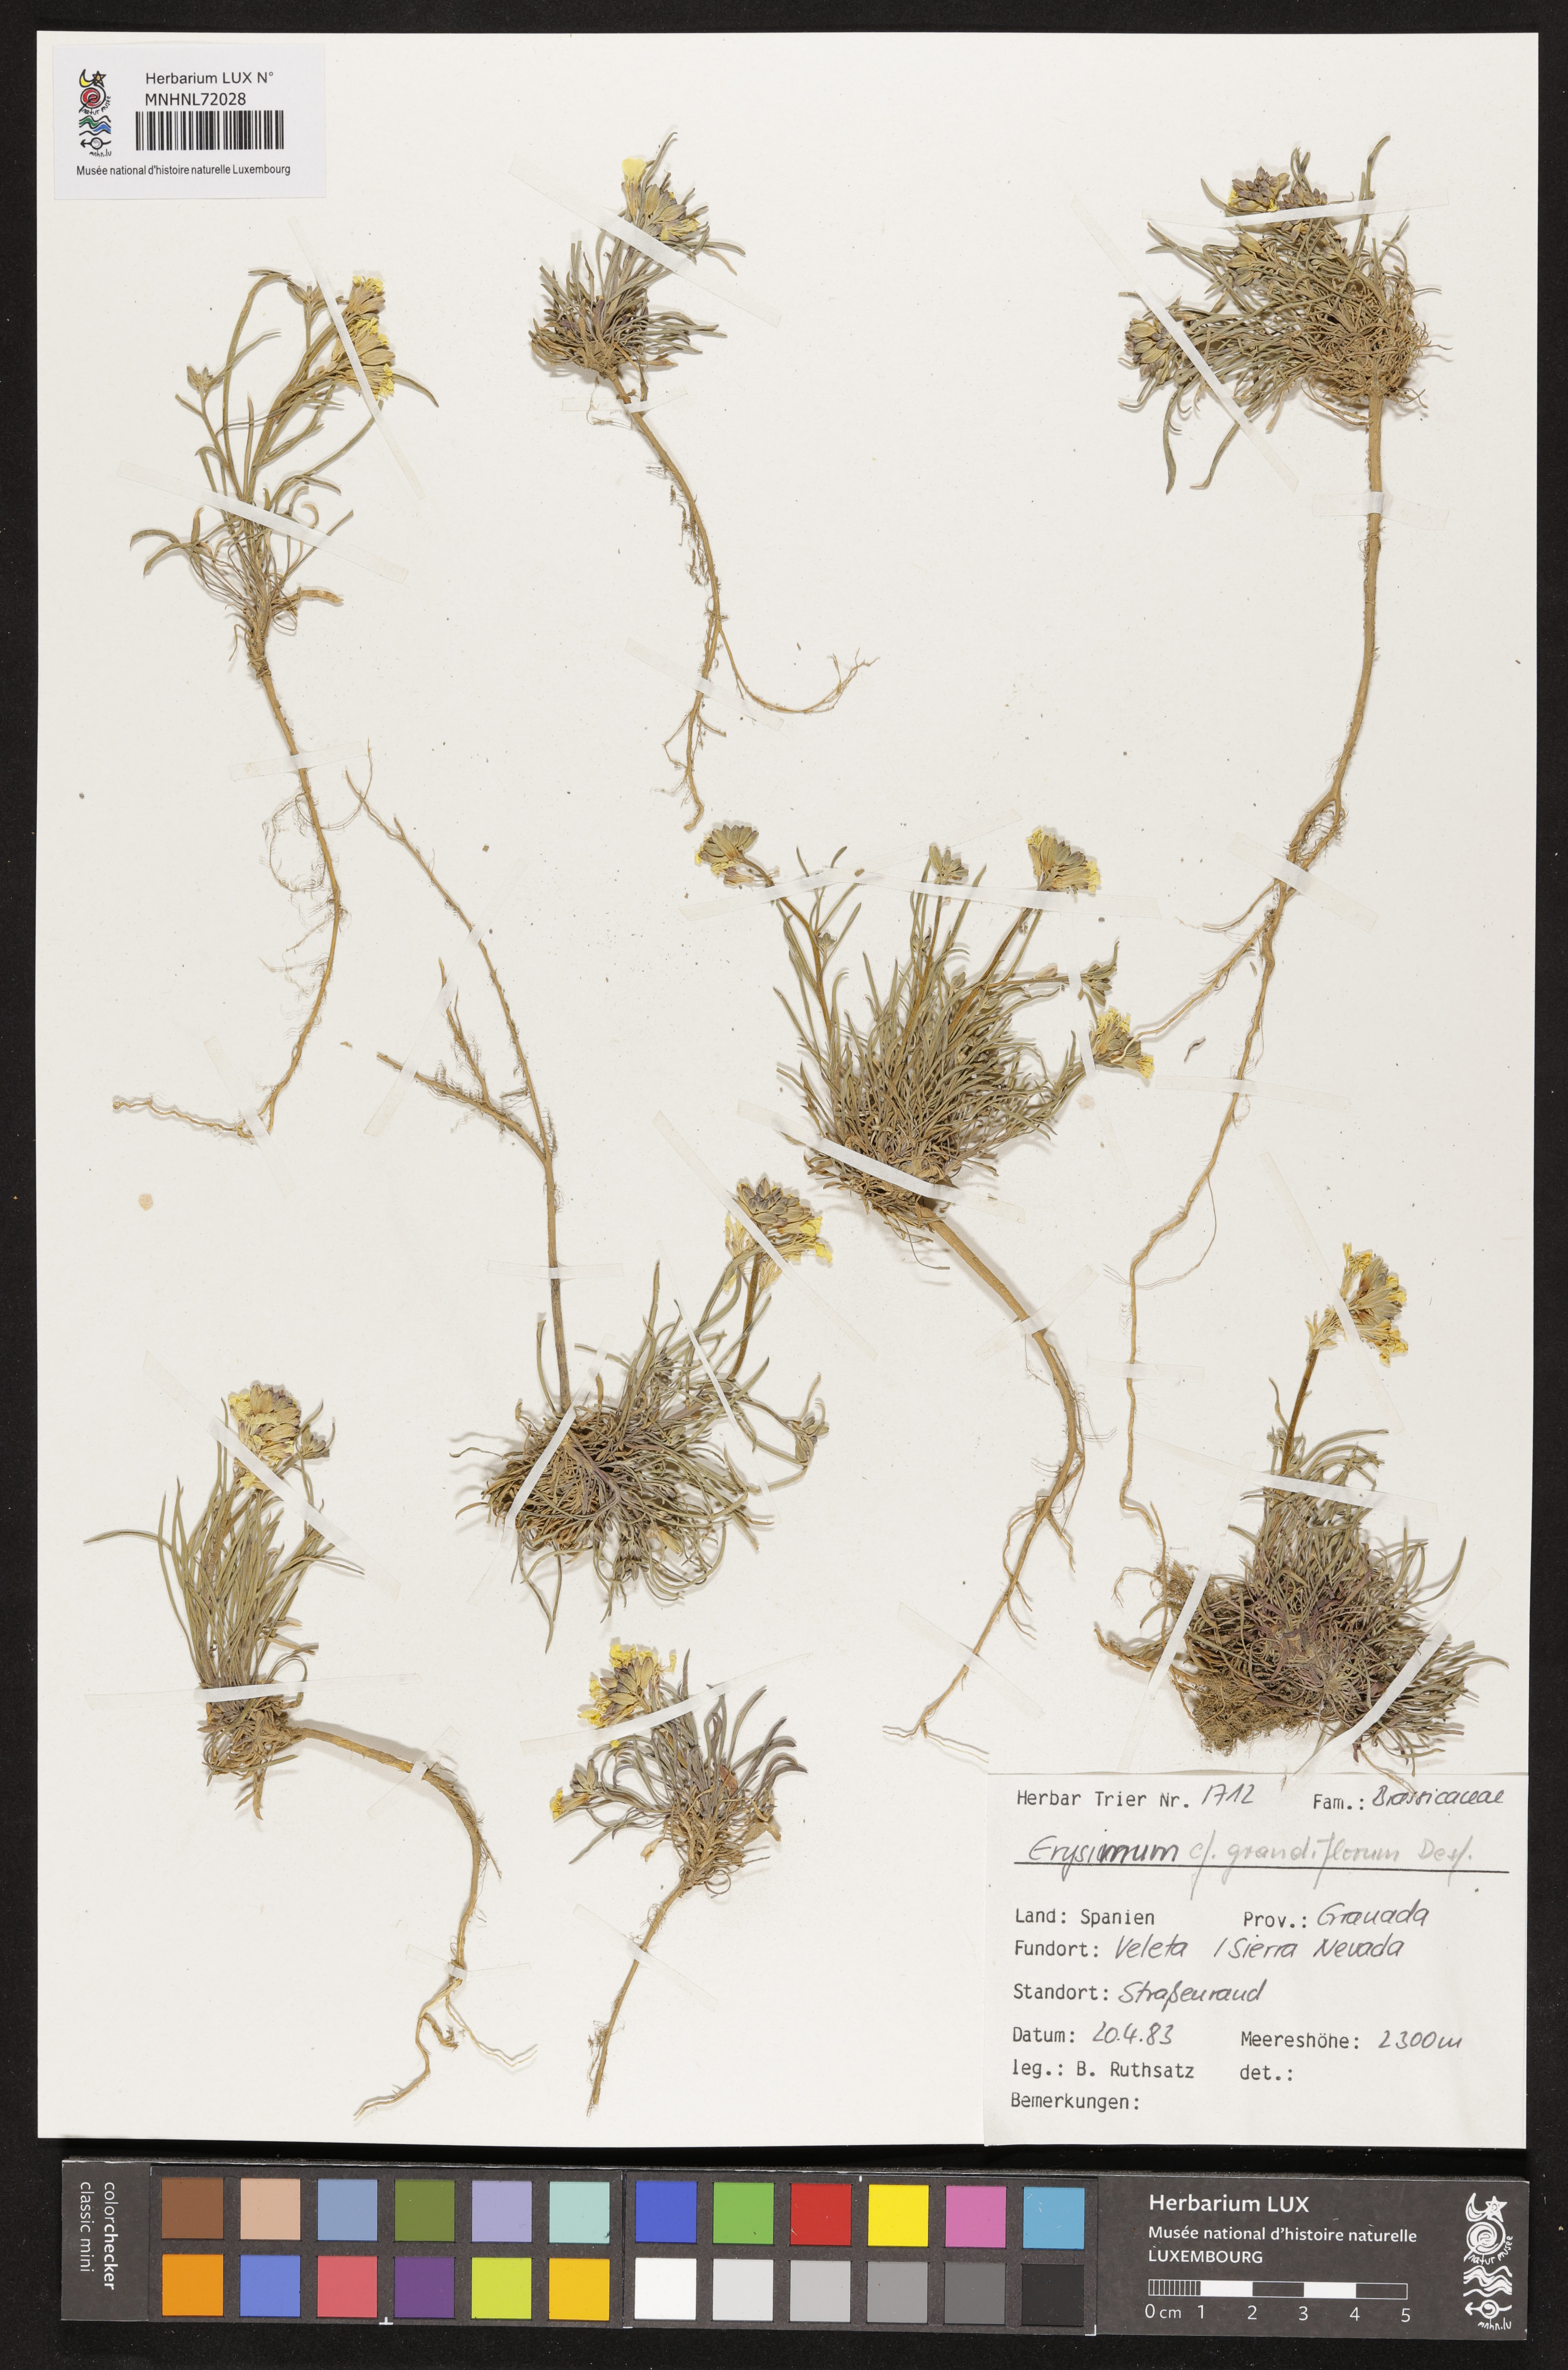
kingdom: Plantae
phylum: Tracheophyta
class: Magnoliopsida
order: Brassicales
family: Brassicaceae
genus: Erysimum
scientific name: Erysimum duriaei
